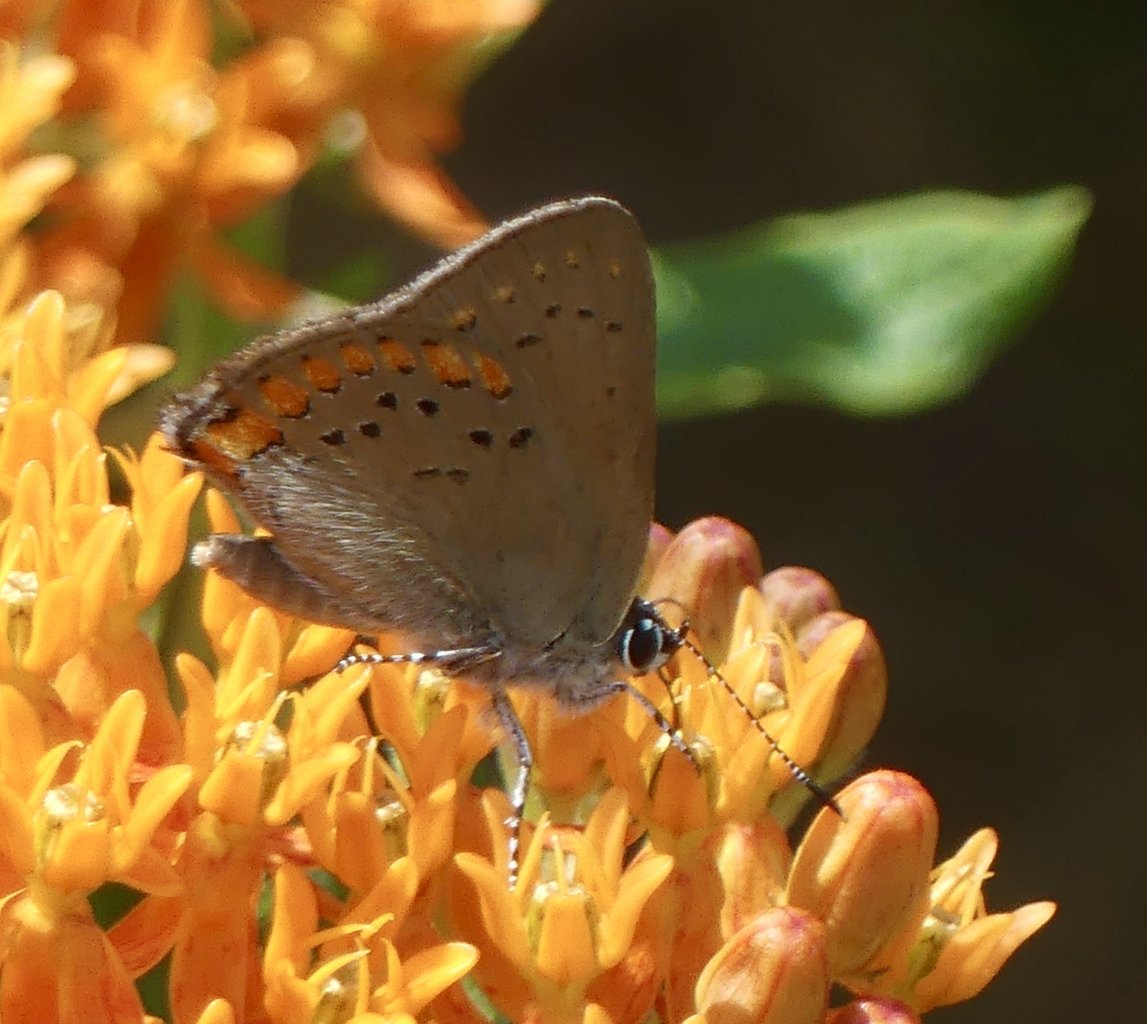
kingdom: Animalia
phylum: Arthropoda
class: Insecta
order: Lepidoptera
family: Lycaenidae
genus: Harkenclenus
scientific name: Harkenclenus titus
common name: Coral Hairstreak
